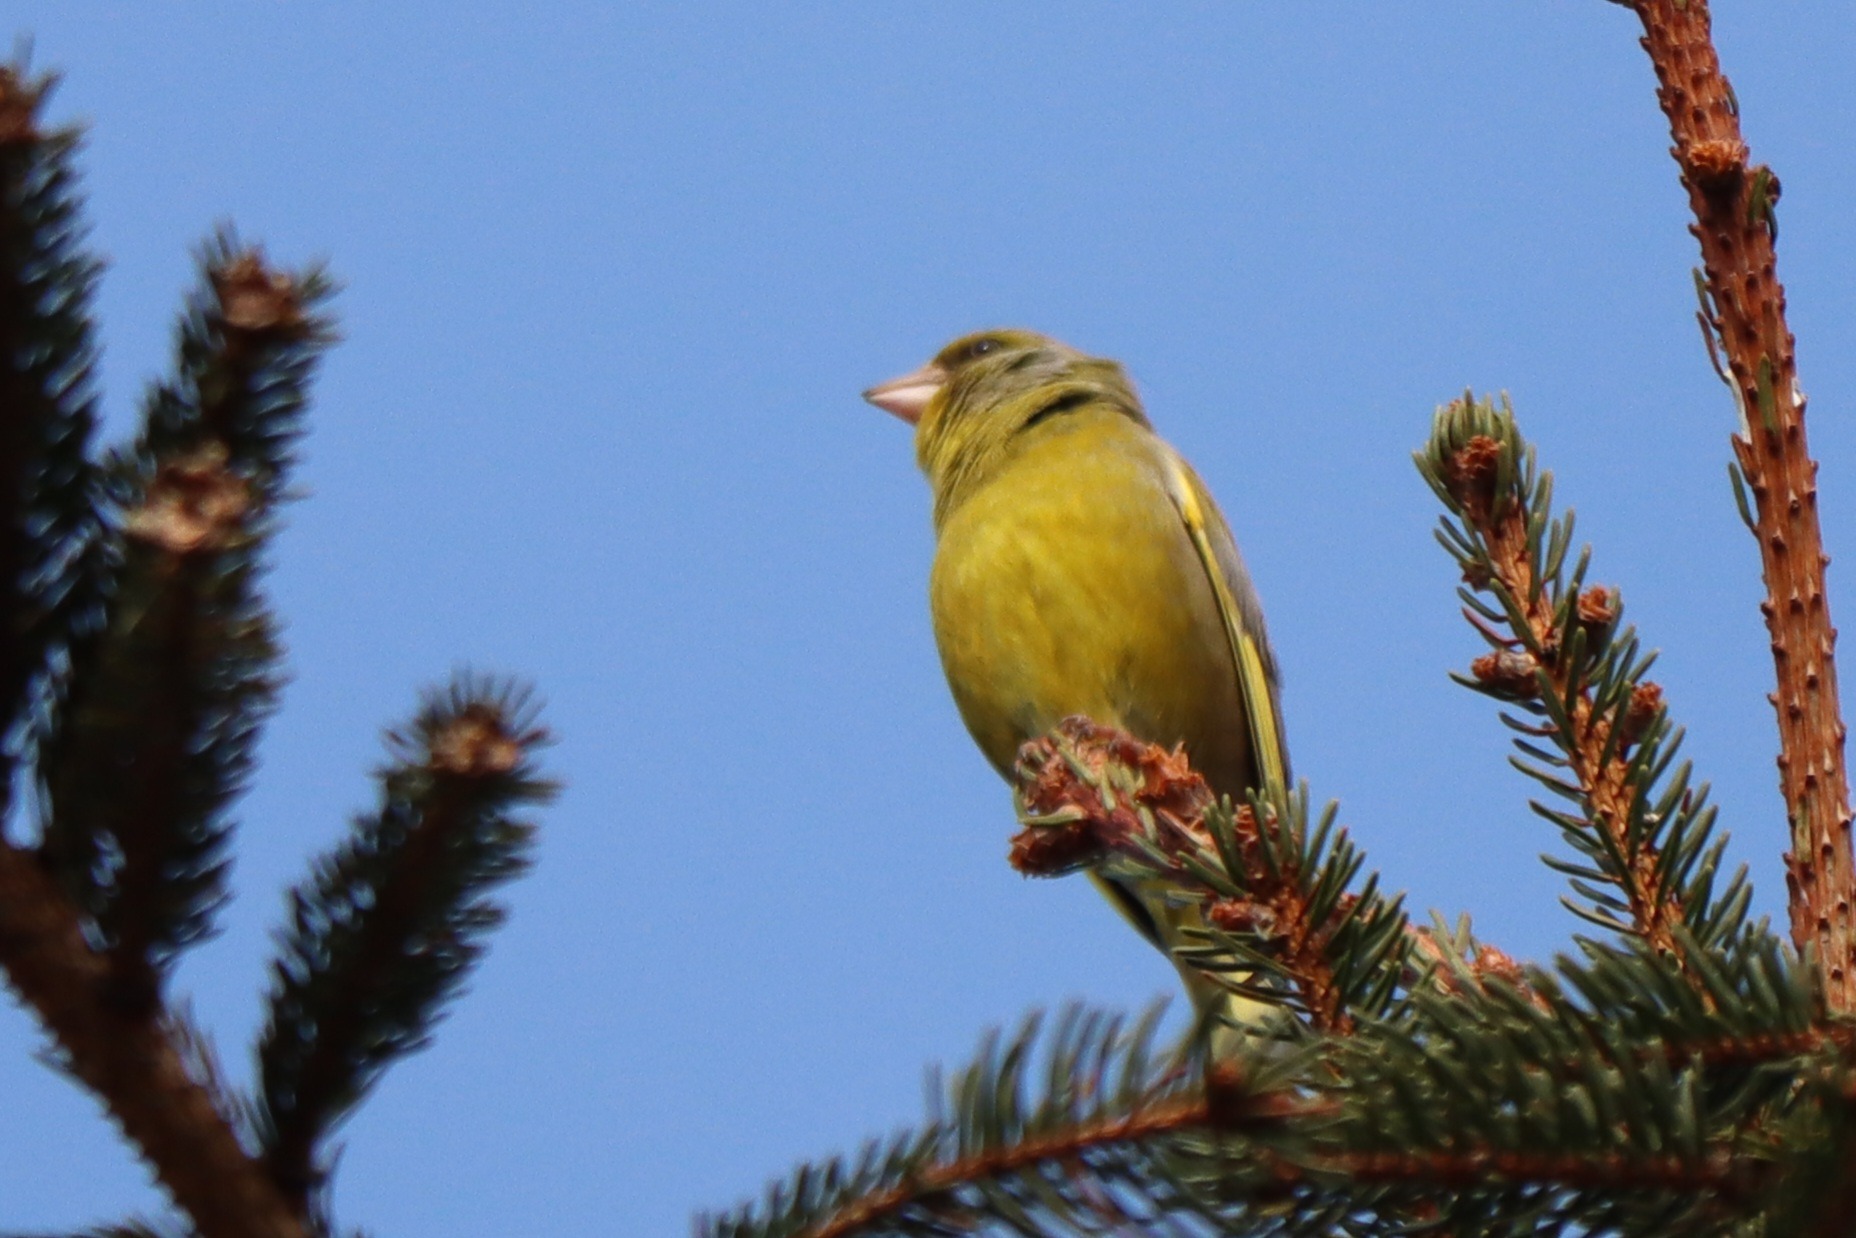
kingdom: Plantae
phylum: Tracheophyta
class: Liliopsida
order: Poales
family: Poaceae
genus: Chloris
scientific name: Chloris chloris
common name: Grønirisk
